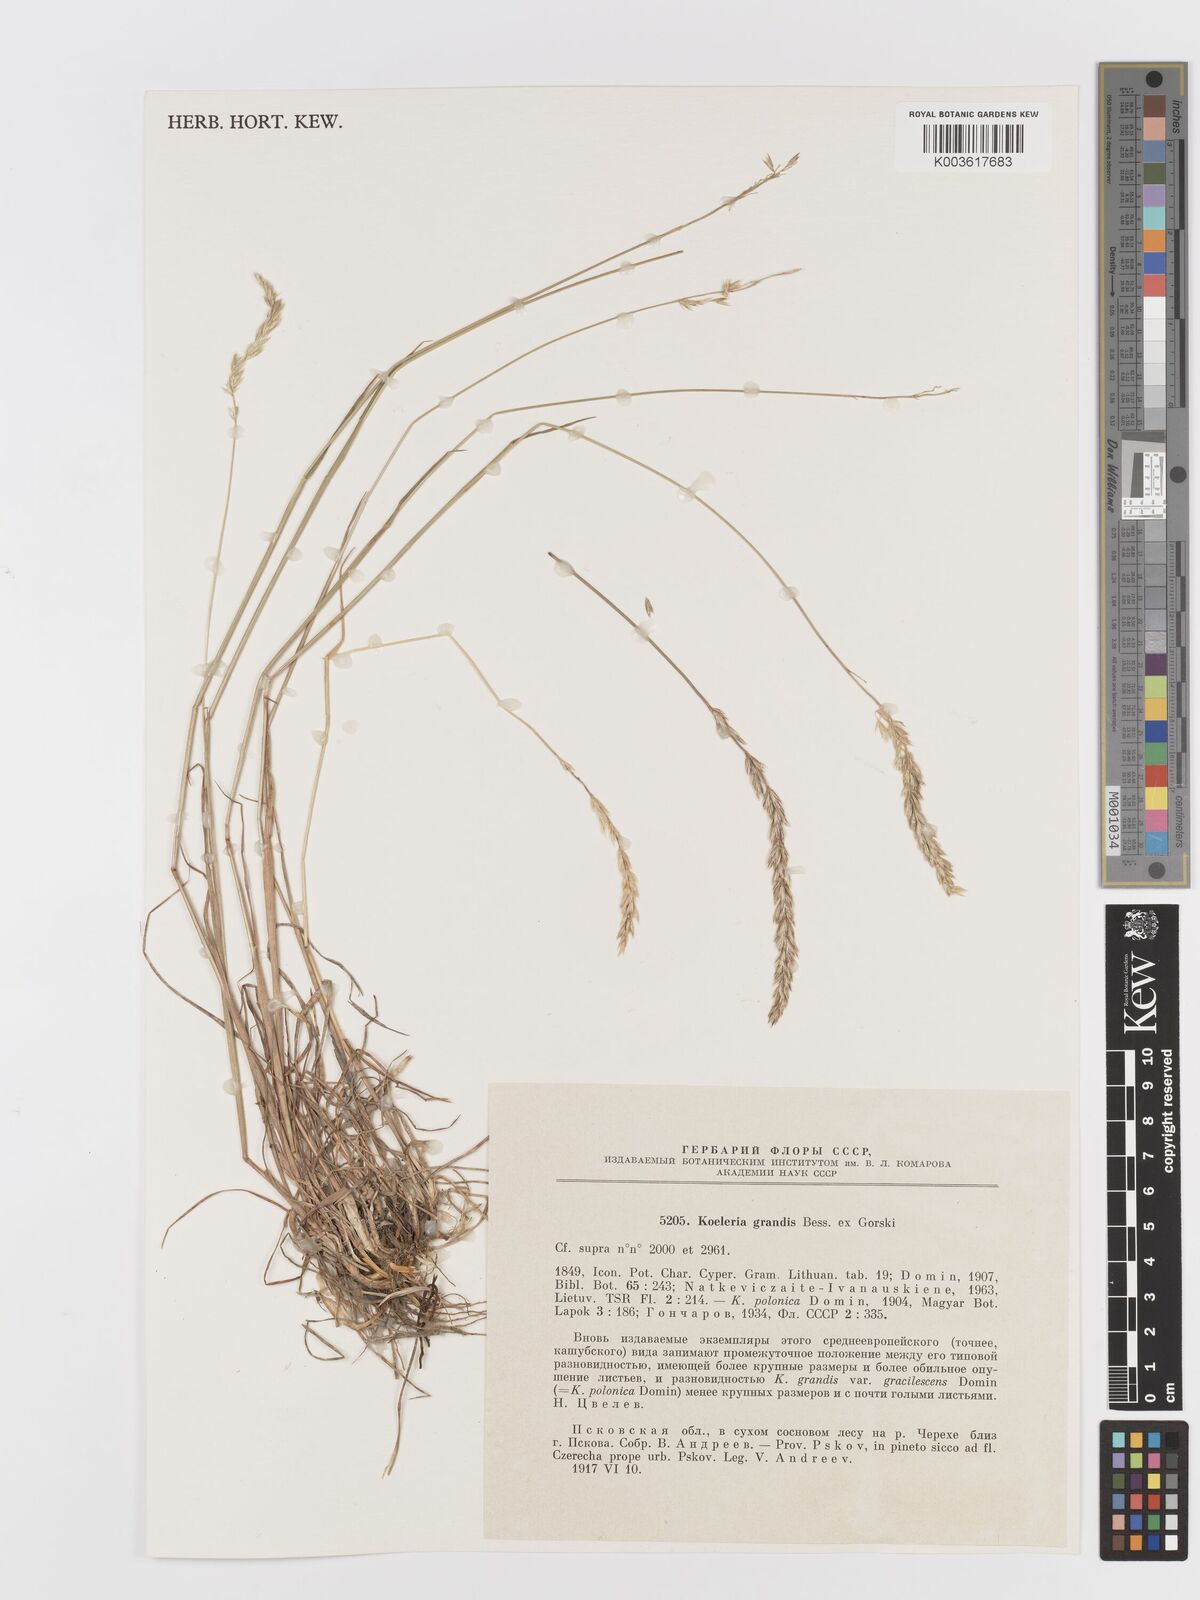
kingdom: Plantae
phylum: Tracheophyta
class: Liliopsida
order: Poales
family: Poaceae
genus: Koeleria
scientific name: Koeleria pyramidata
